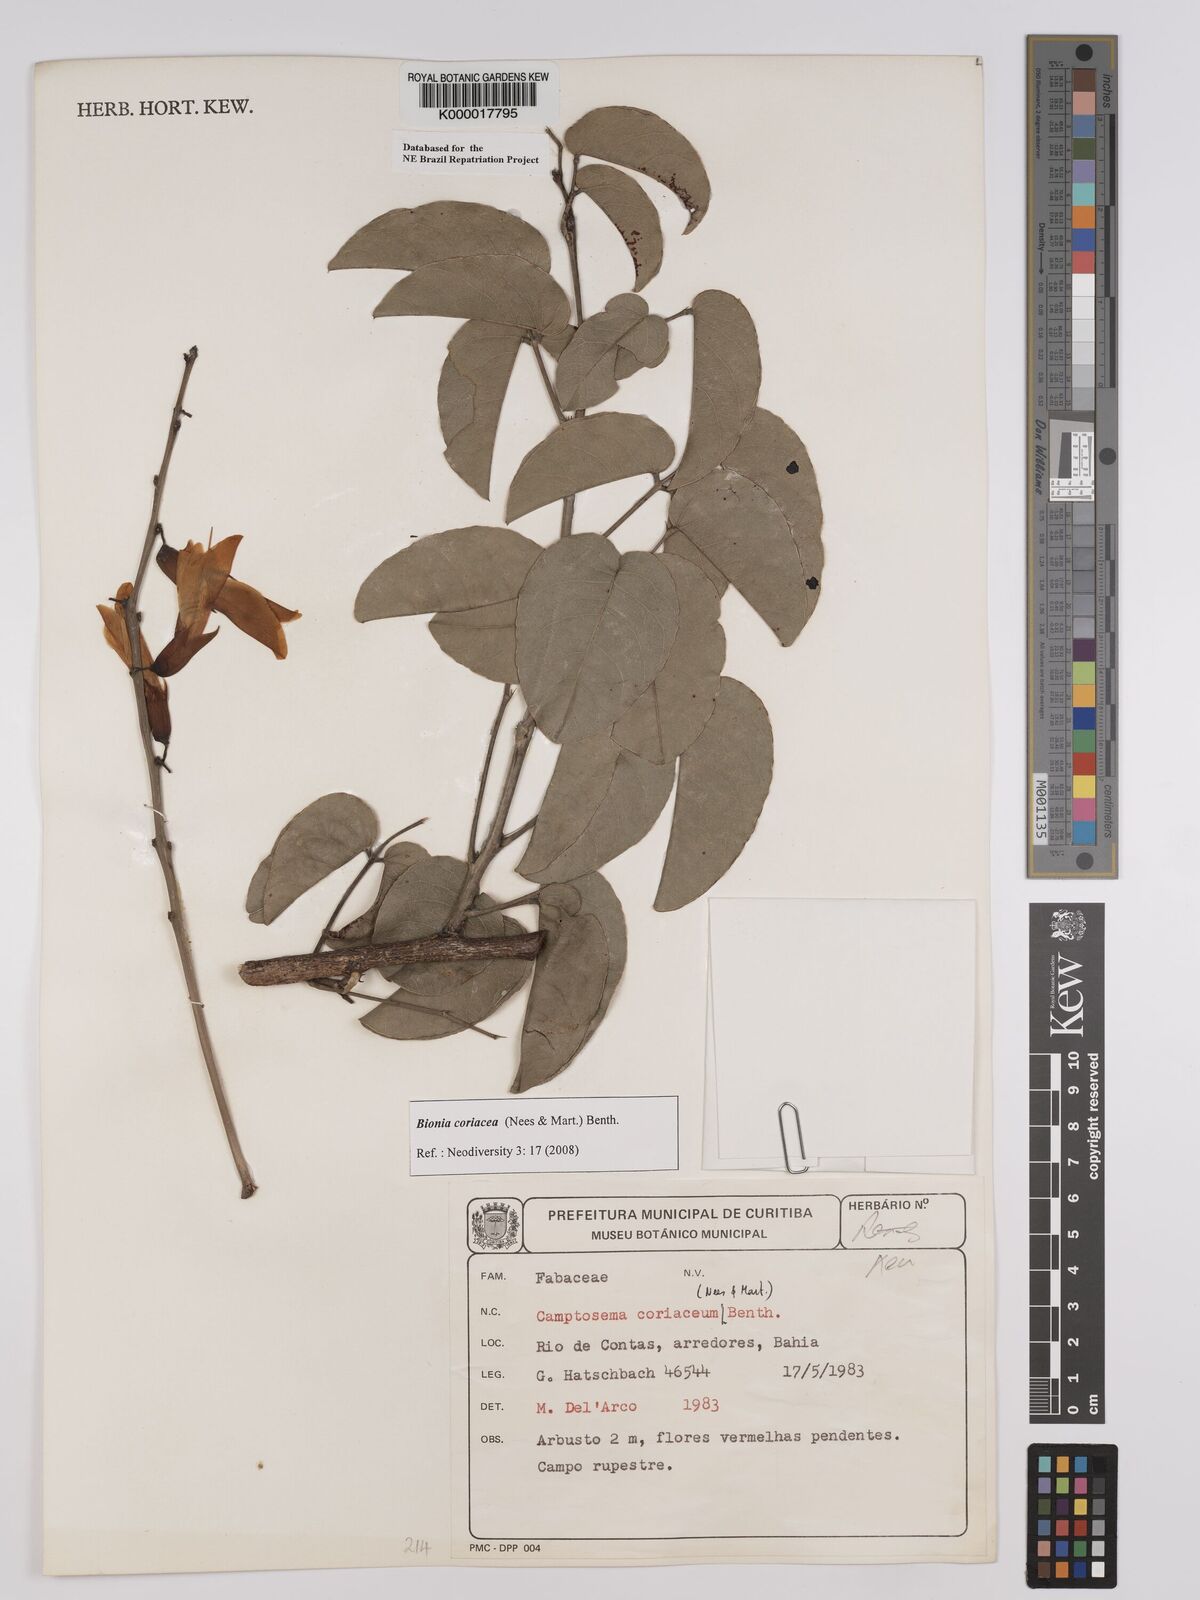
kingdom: Plantae
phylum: Tracheophyta
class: Magnoliopsida
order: Fabales
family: Fabaceae
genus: Camptosema
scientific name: Camptosema coriaceum
